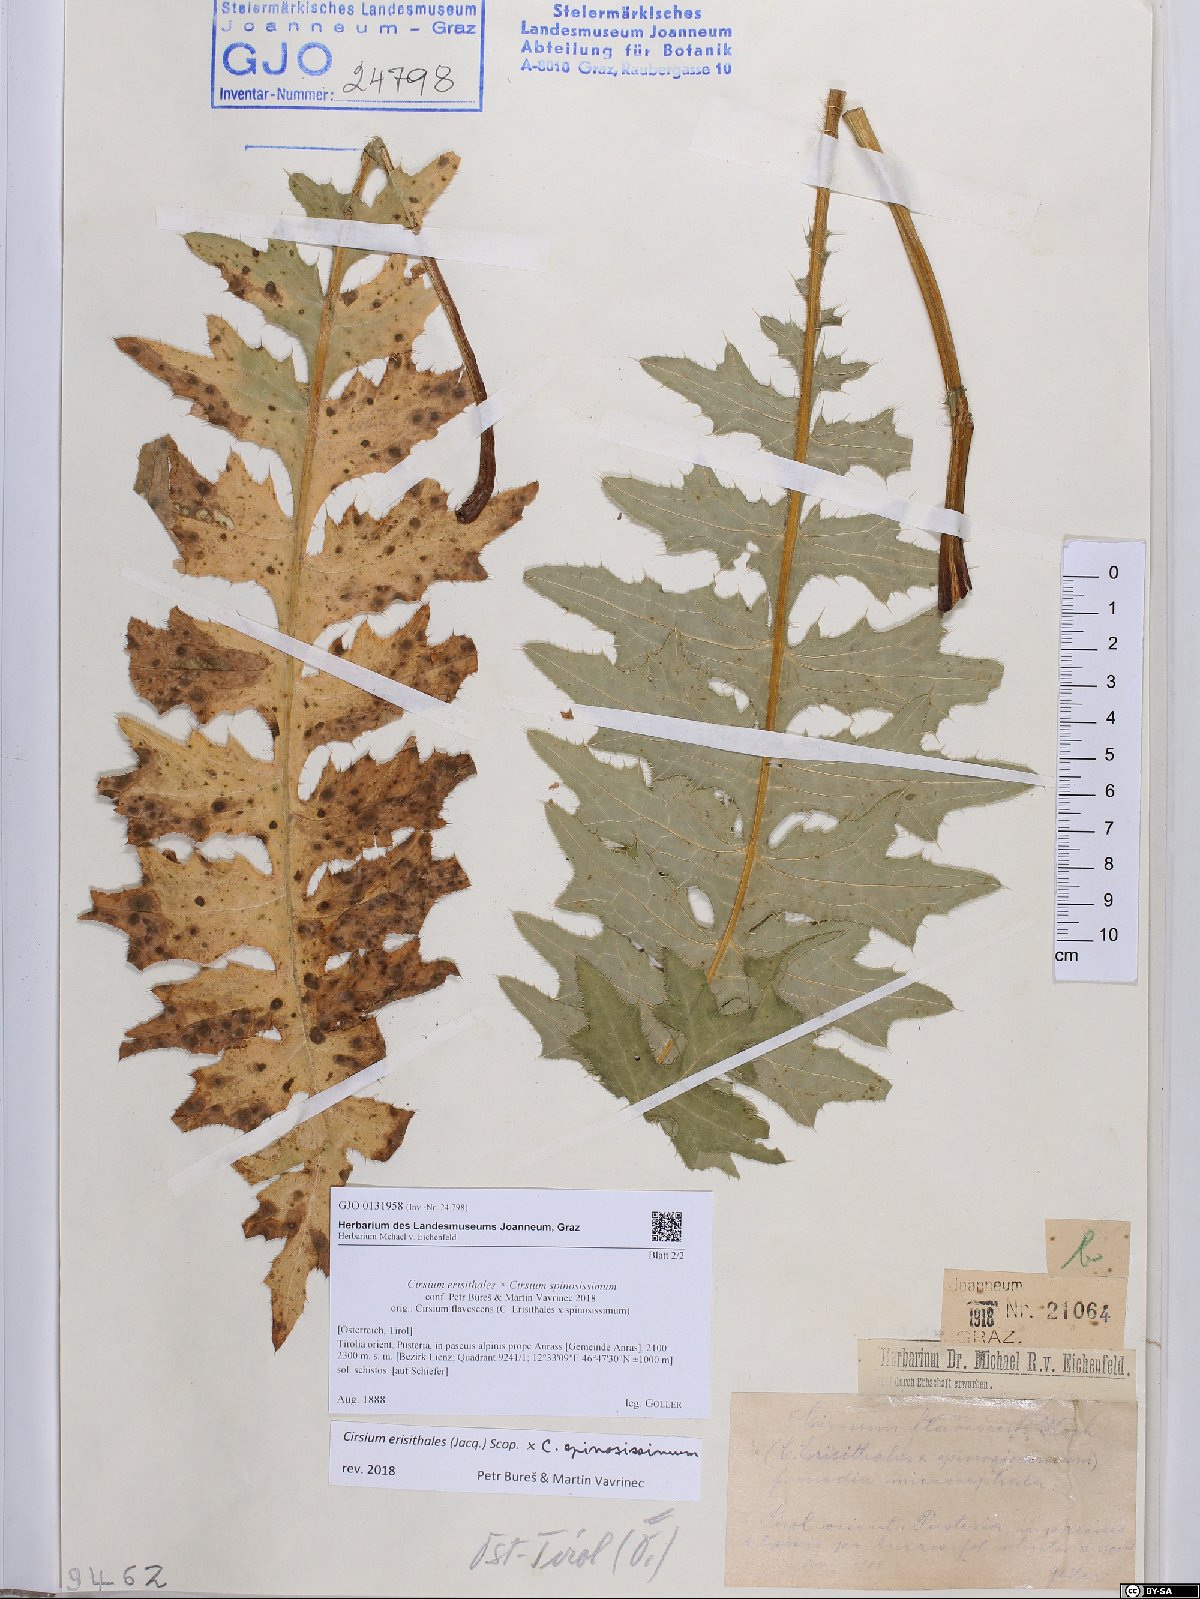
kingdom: Plantae
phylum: Tracheophyta
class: Magnoliopsida
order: Asterales
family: Asteraceae
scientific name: Asteraceae
